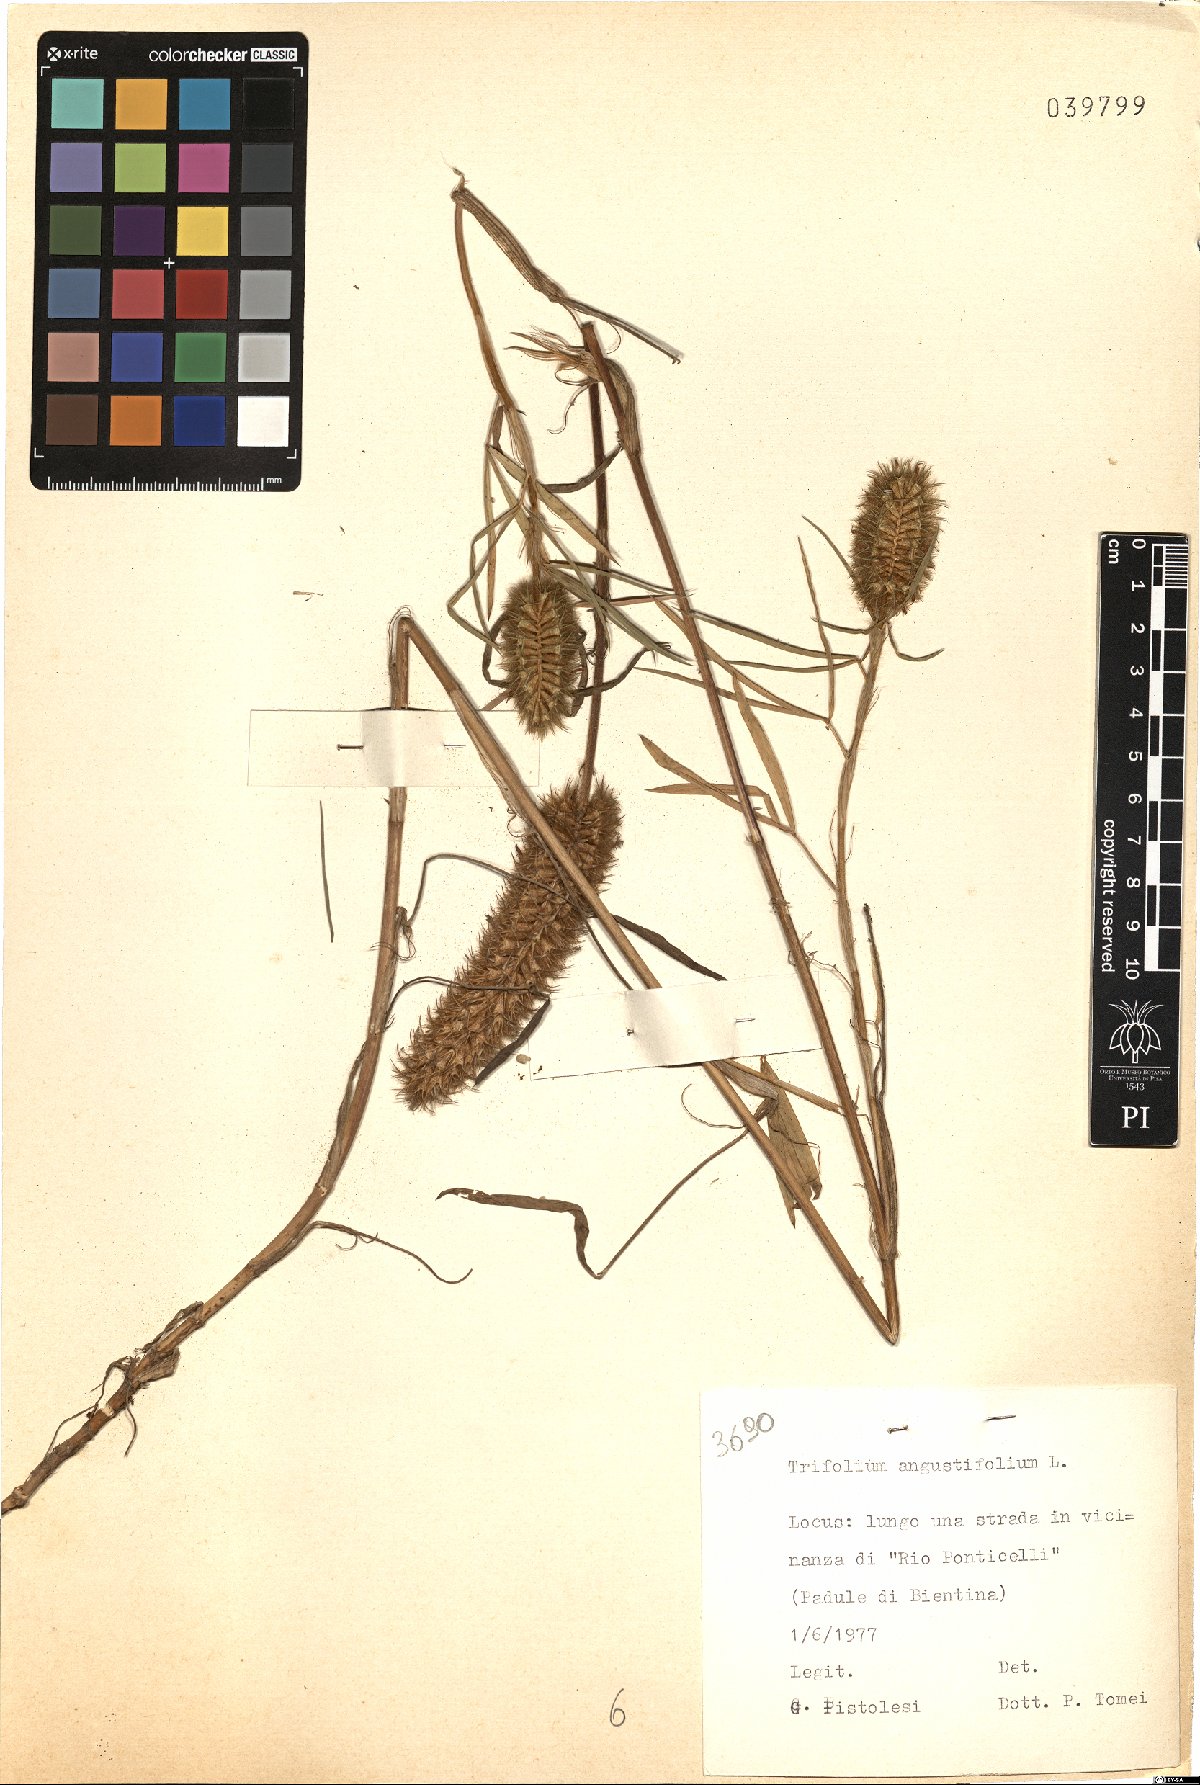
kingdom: Plantae
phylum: Tracheophyta
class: Magnoliopsida
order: Fabales
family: Fabaceae
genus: Trifolium
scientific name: Trifolium angustifolium
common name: Narrow clover
